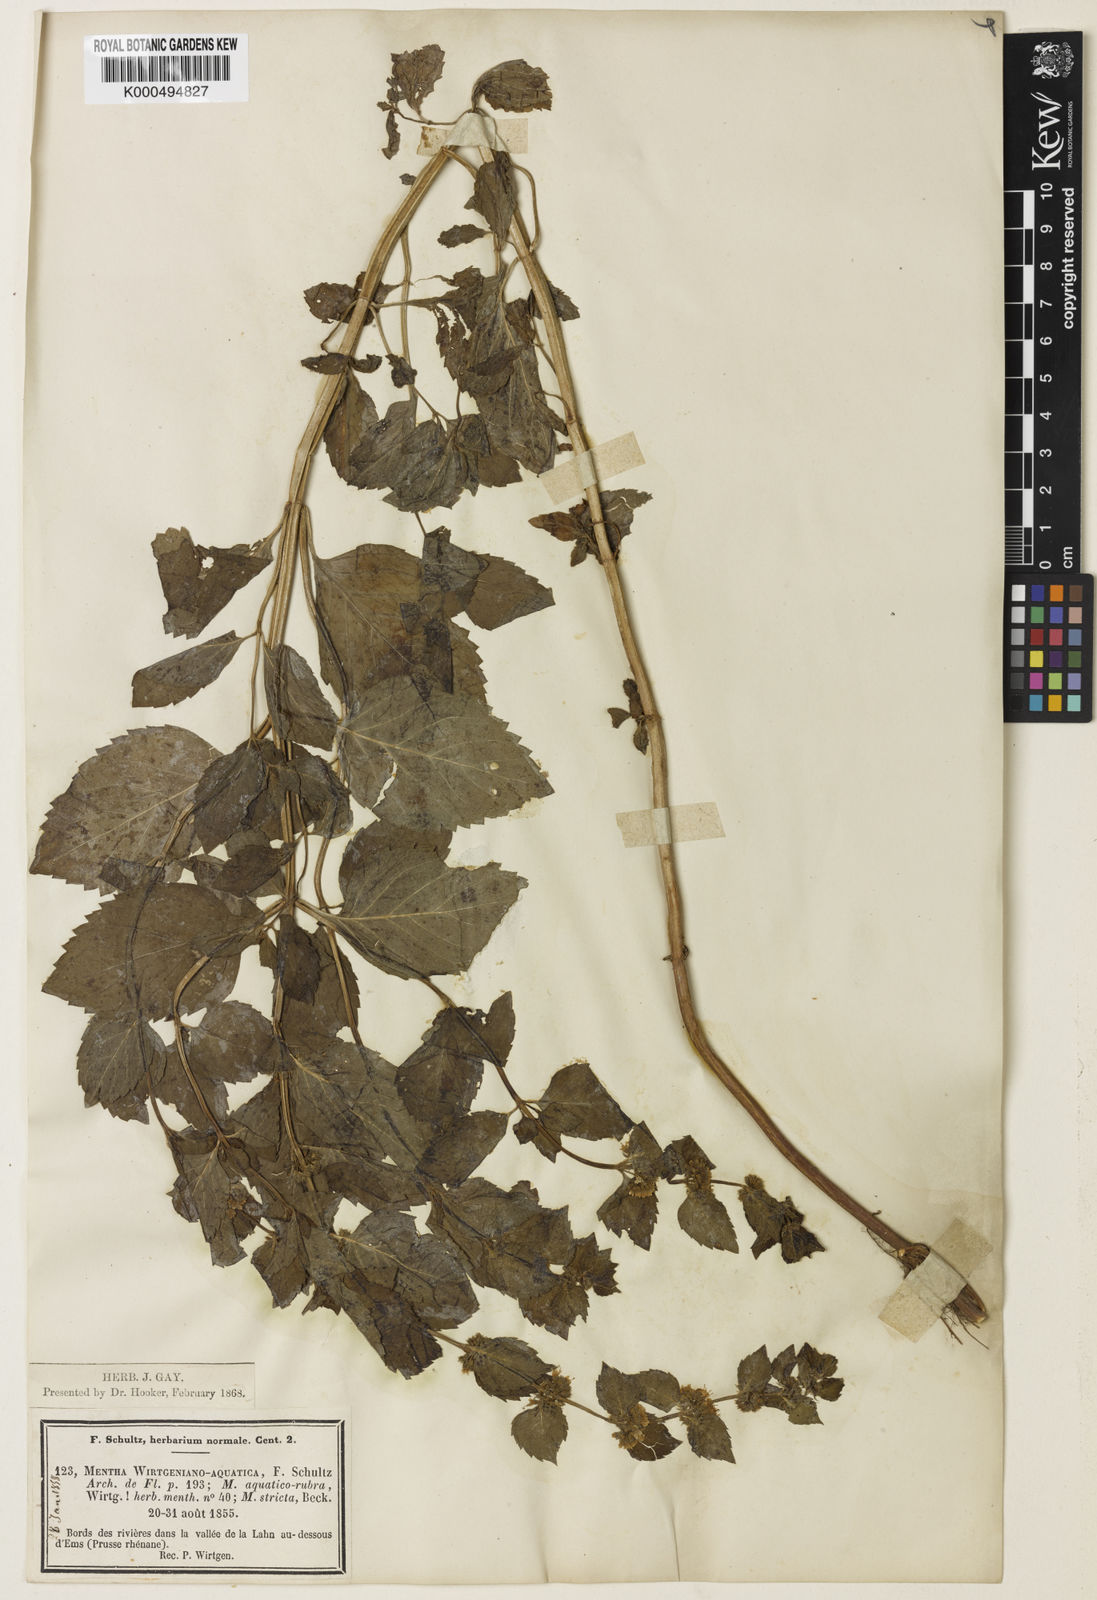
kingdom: Plantae
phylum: Tracheophyta
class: Magnoliopsida
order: Lamiales
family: Lamiaceae
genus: Mentha
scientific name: Mentha aquatica
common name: Water mint
